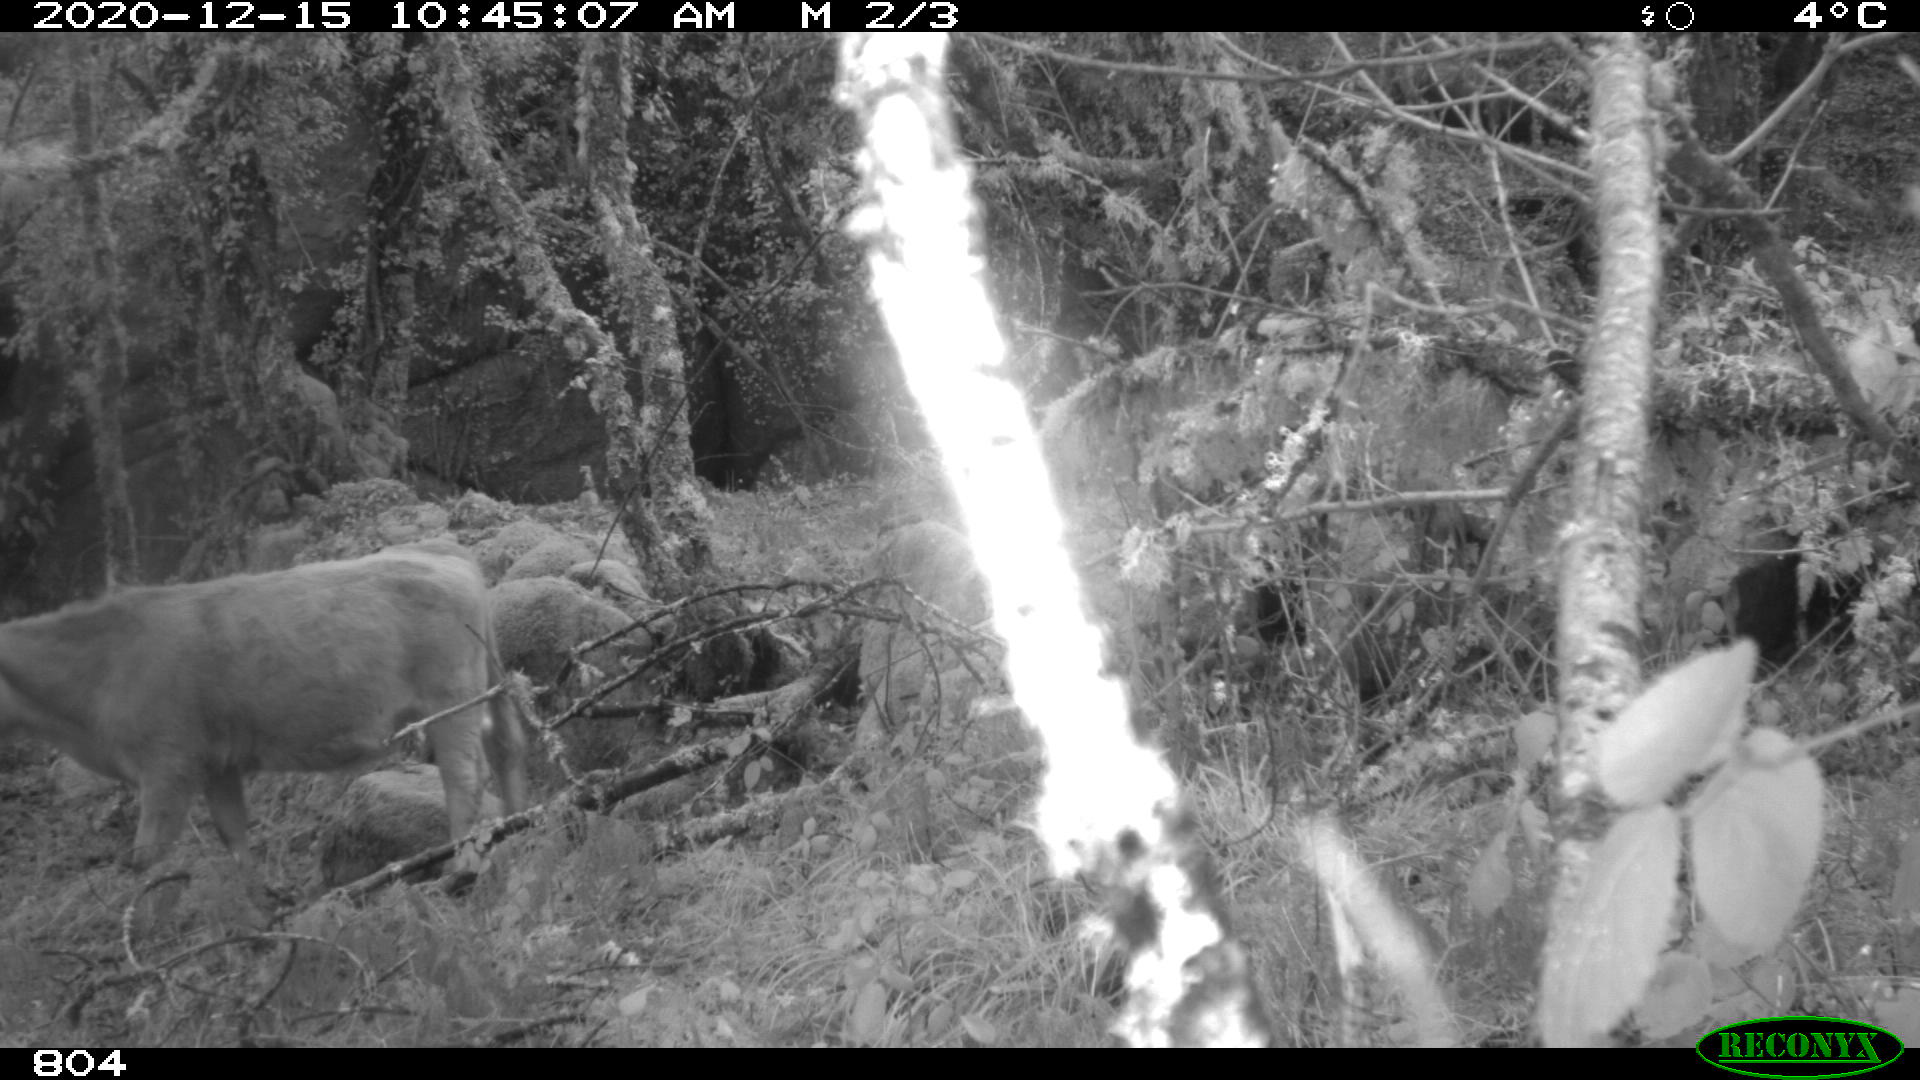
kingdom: Animalia
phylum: Chordata
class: Mammalia
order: Artiodactyla
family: Bovidae
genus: Bos
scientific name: Bos taurus
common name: Domesticated cattle
